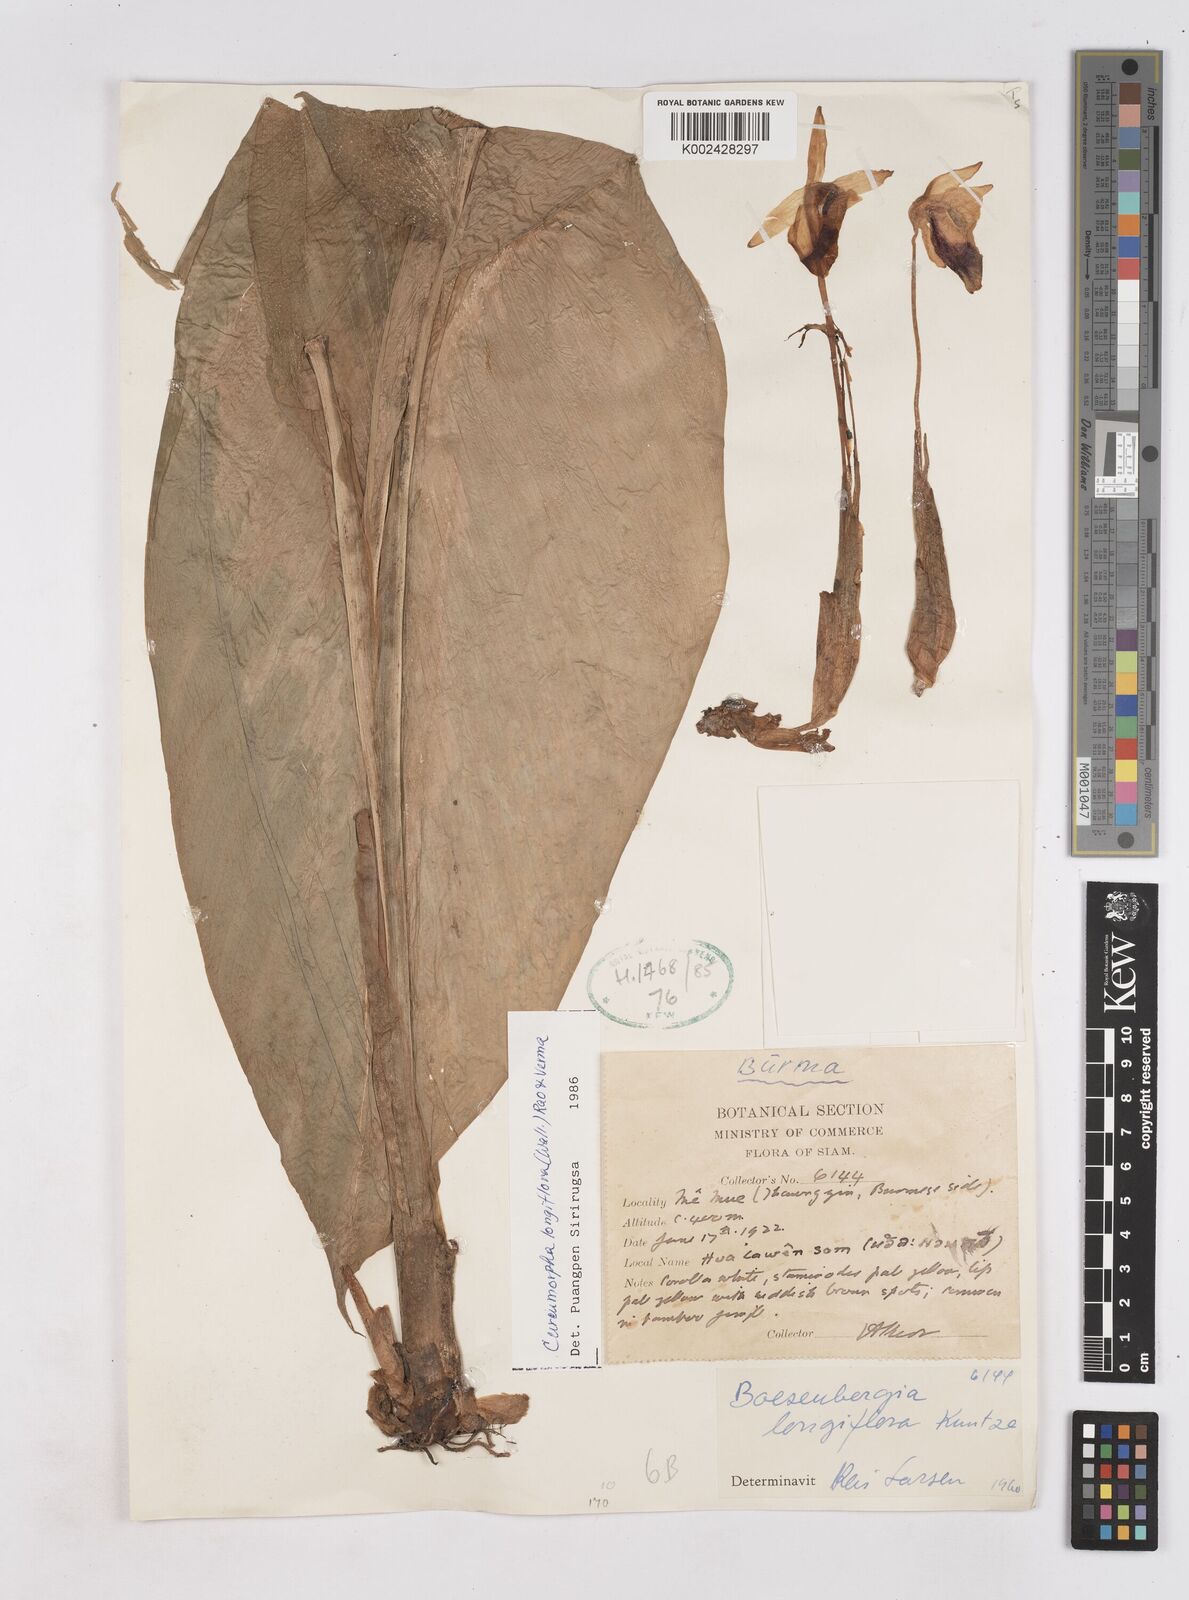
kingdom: Plantae
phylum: Tracheophyta
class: Liliopsida
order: Zingiberales
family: Zingiberaceae
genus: Boesenbergia
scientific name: Boesenbergia longiflora
